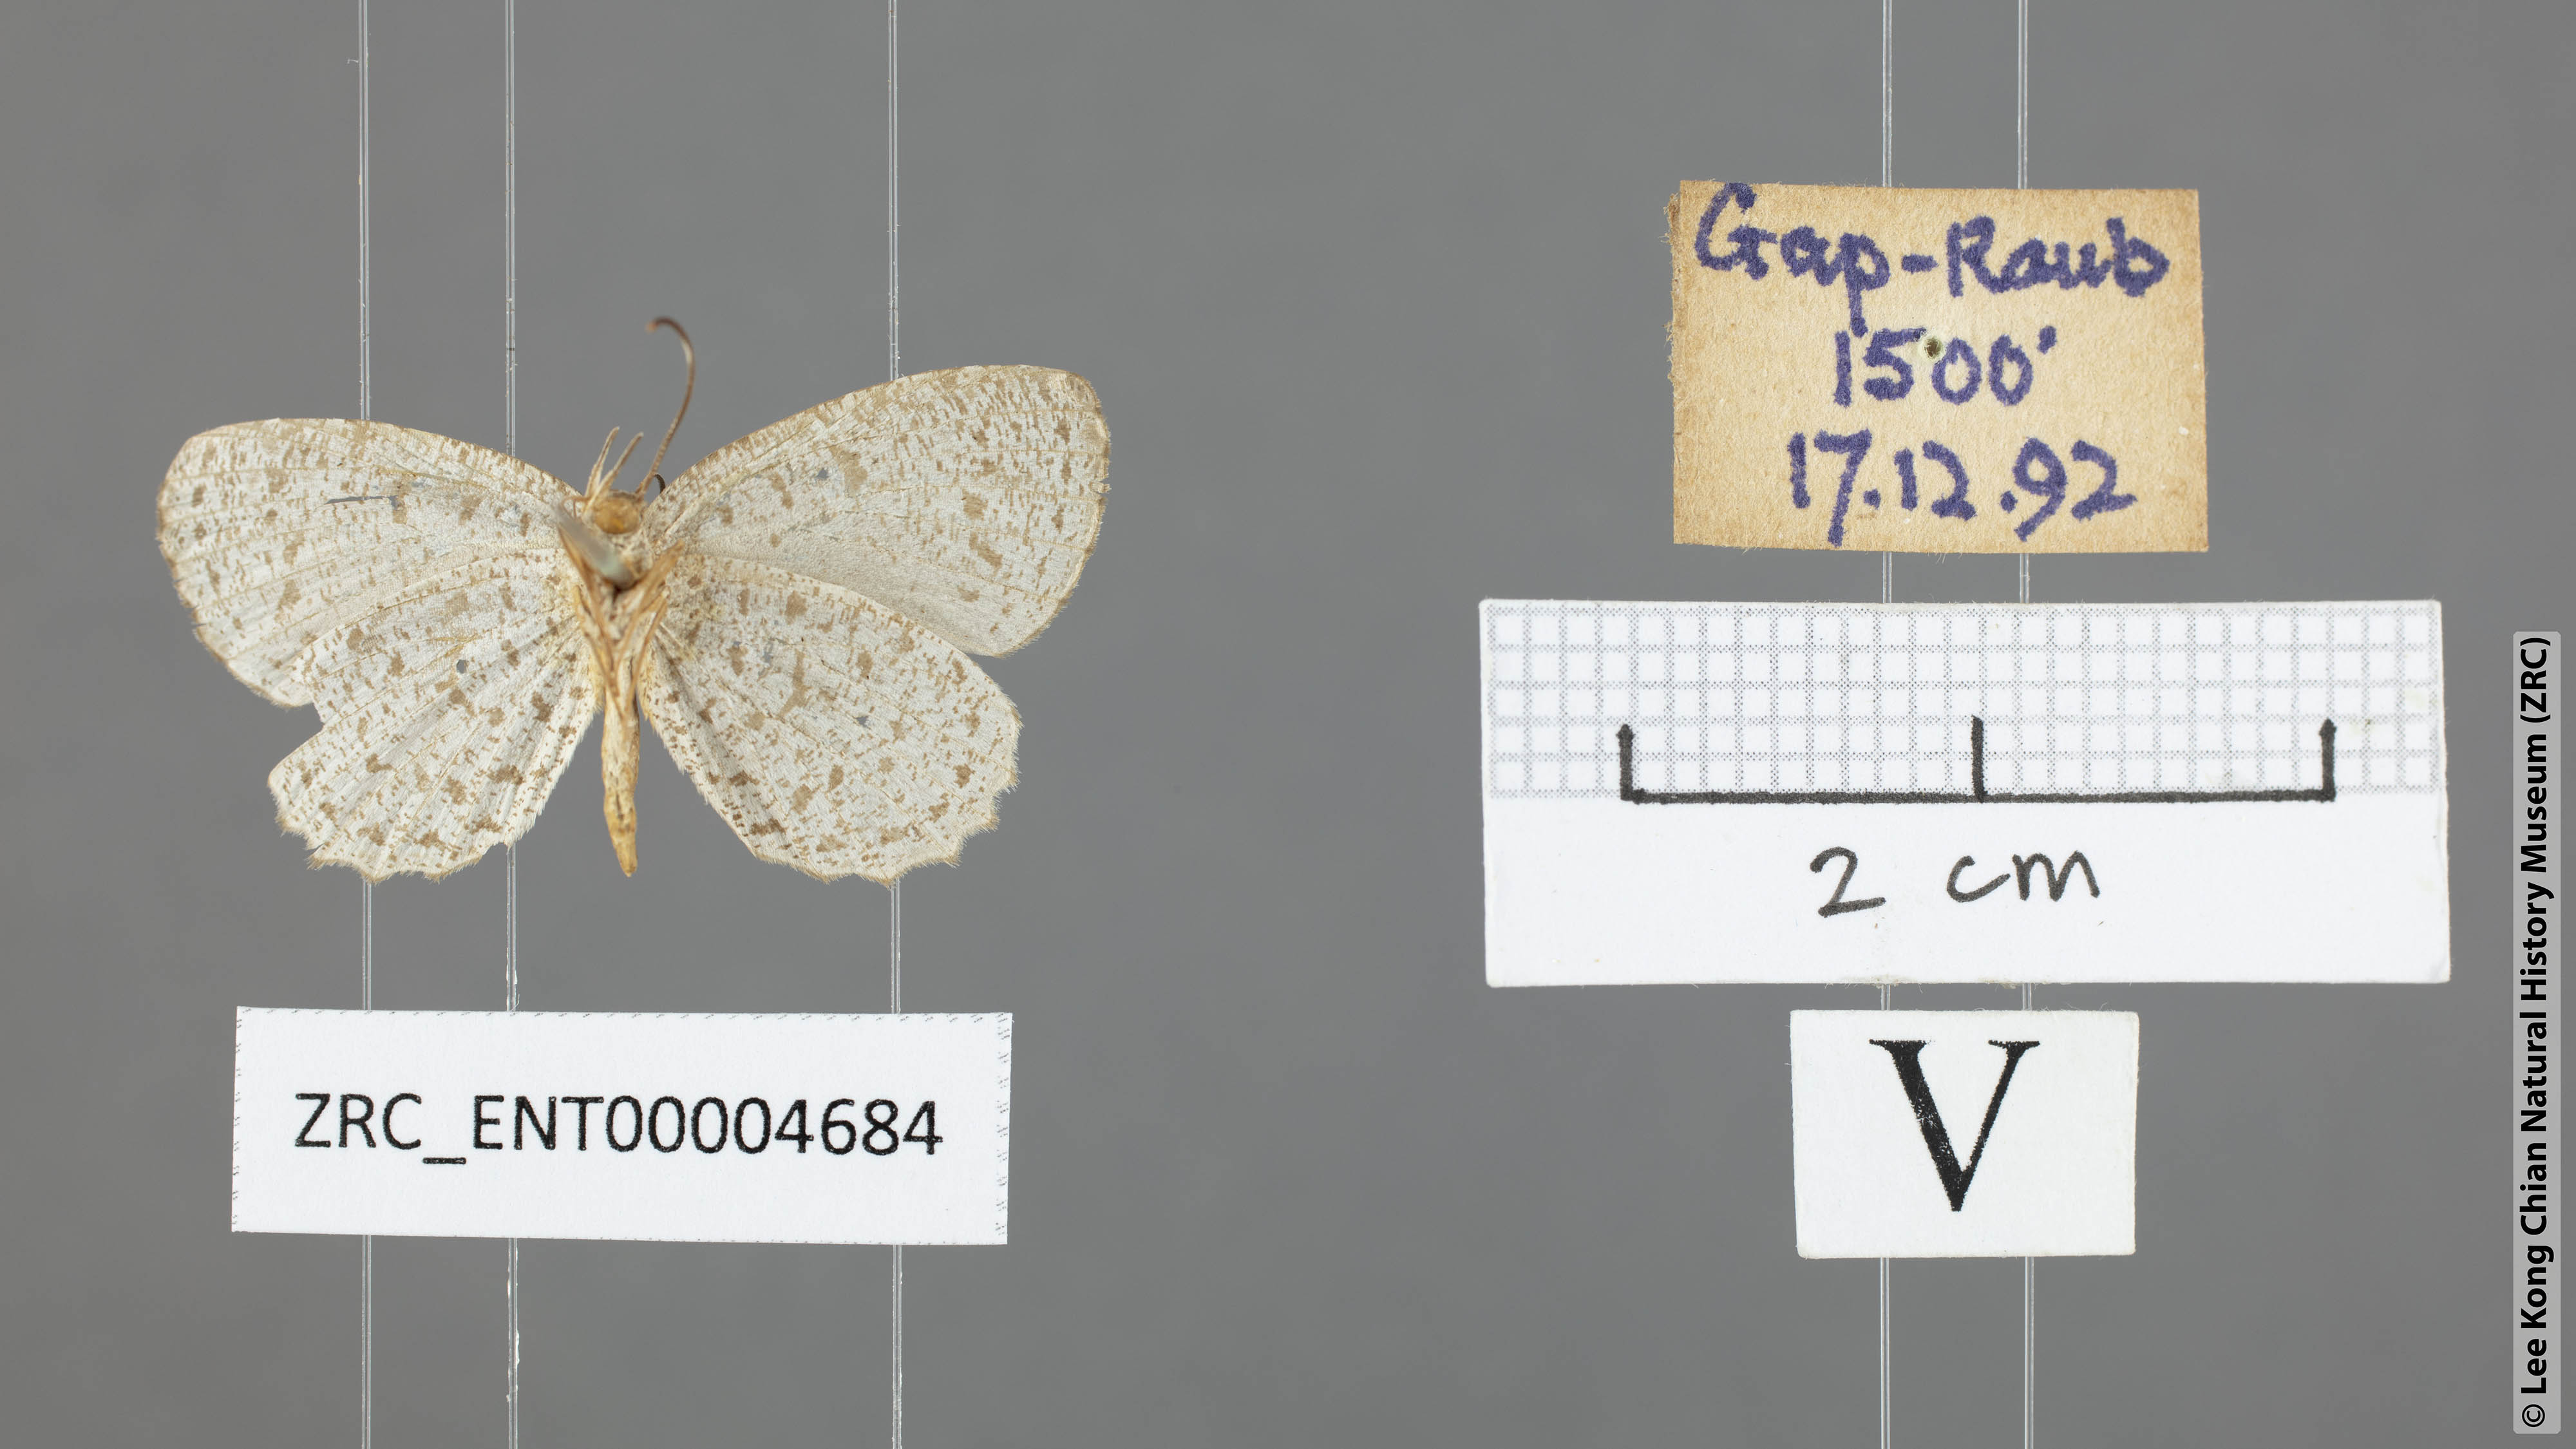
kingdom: Animalia
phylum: Arthropoda
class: Insecta
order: Lepidoptera
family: Lycaenidae
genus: Allotinus
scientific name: Allotinus corbeti
